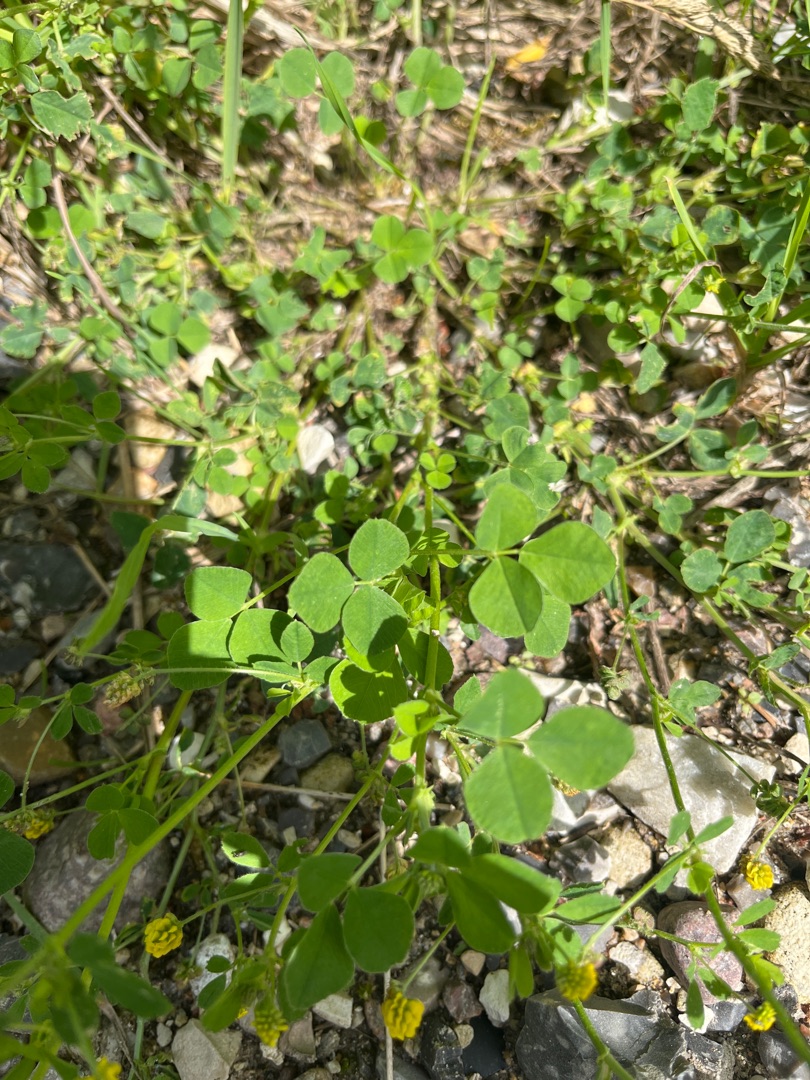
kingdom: Plantae
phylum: Tracheophyta
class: Magnoliopsida
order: Fabales
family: Fabaceae
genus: Medicago
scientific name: Medicago lupulina
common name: Humle-sneglebælg
